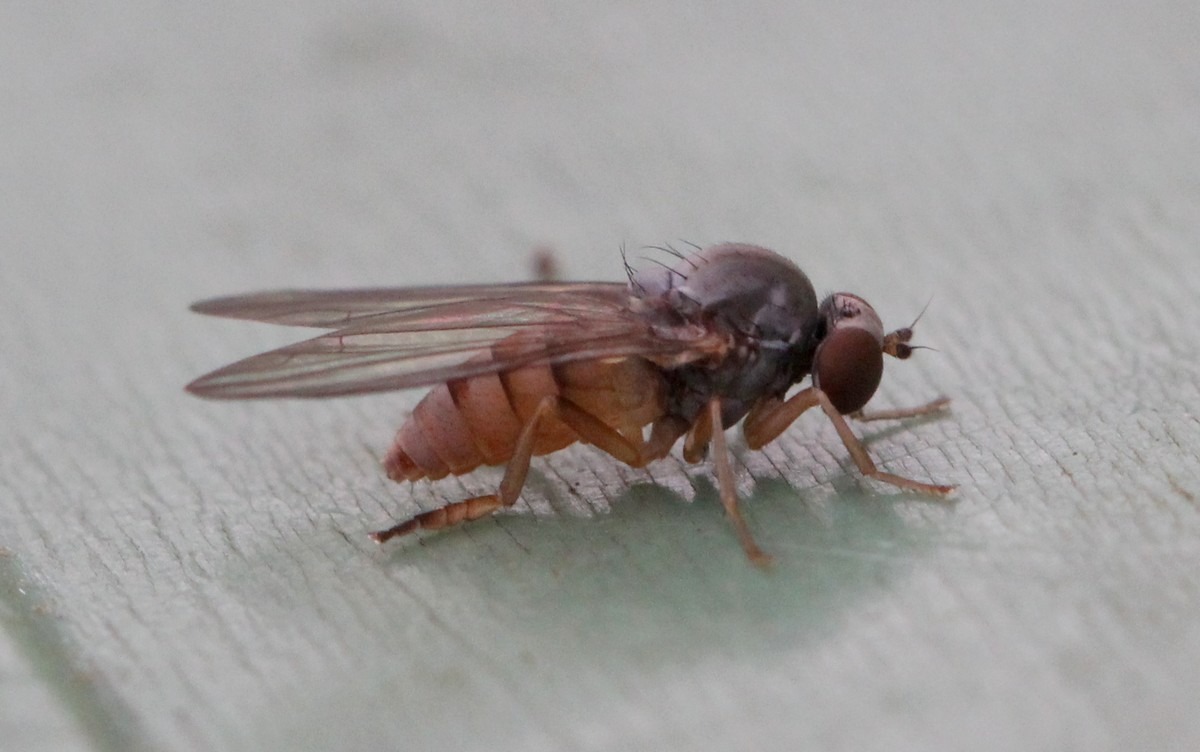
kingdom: Animalia
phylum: Arthropoda
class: Insecta
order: Diptera
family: Platypezidae
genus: Protoclythia
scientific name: Protoclythia rufa
